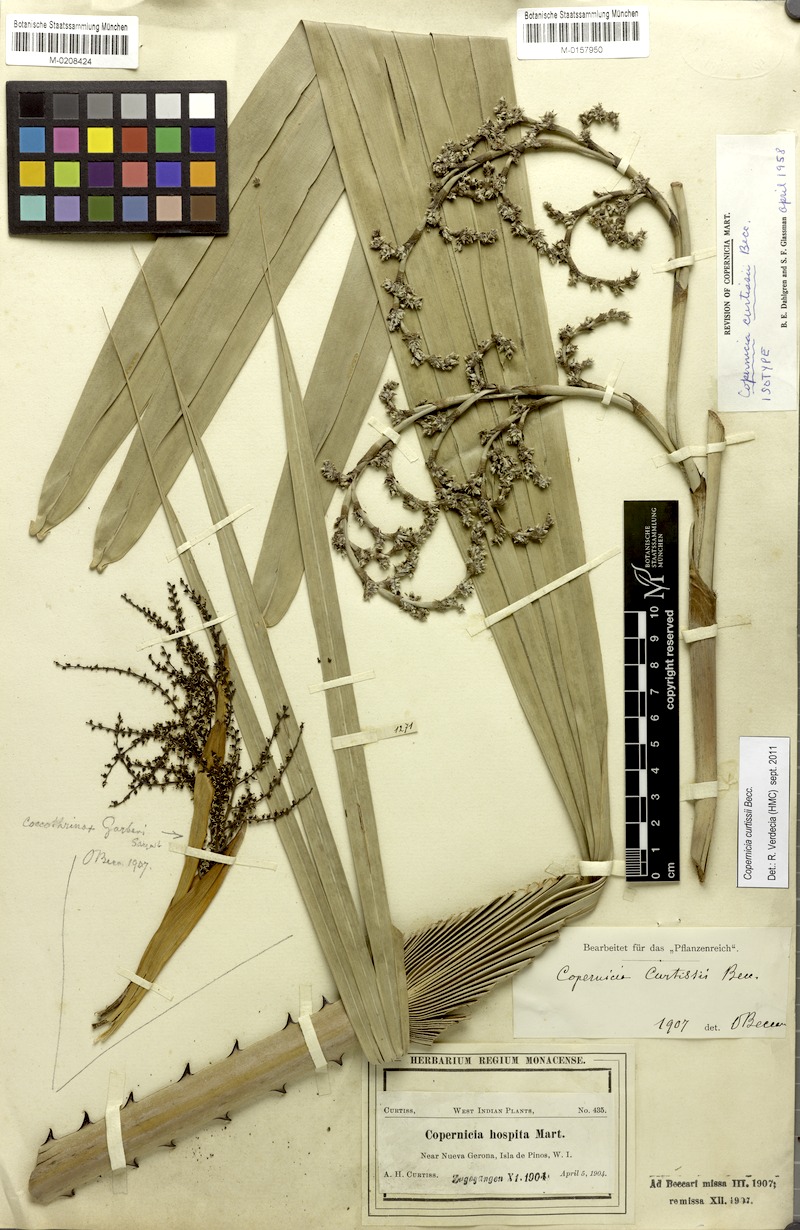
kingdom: Plantae
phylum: Tracheophyta
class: Liliopsida
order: Arecales
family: Arecaceae
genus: Copernicia
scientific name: Copernicia curtissii
